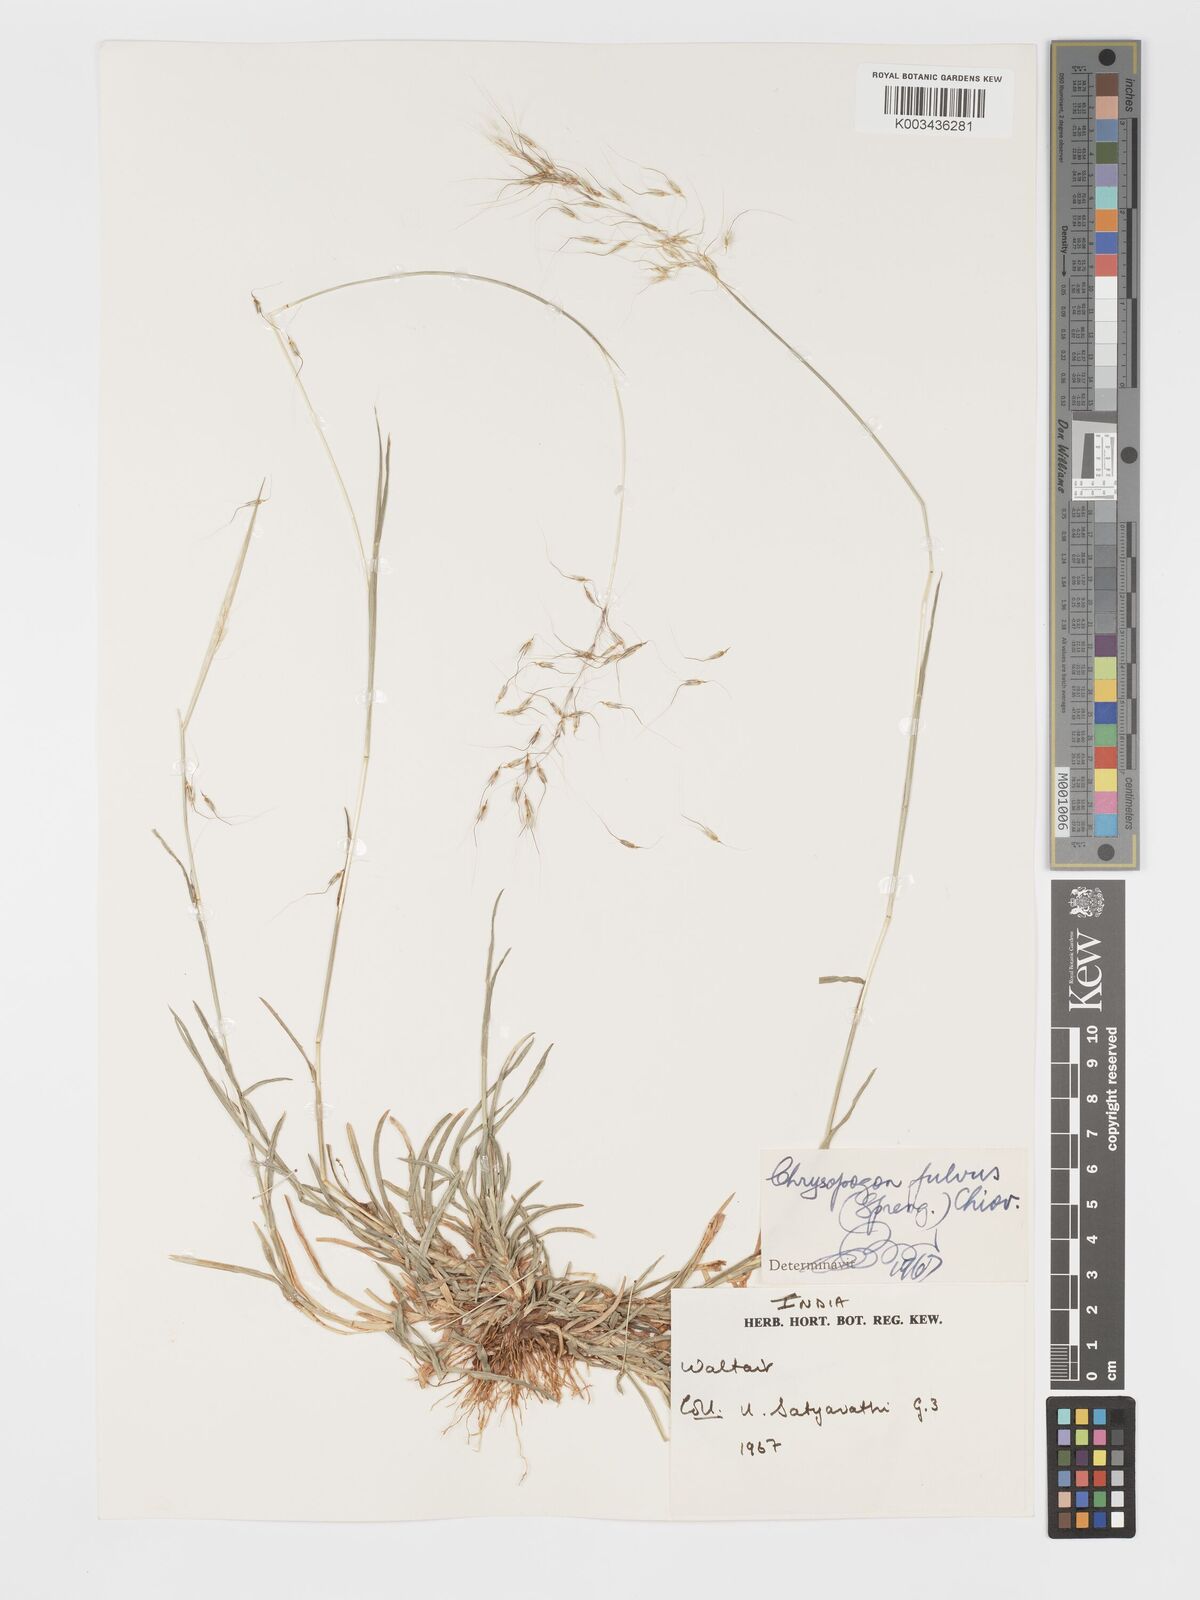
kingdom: Plantae
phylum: Tracheophyta
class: Liliopsida
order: Poales
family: Poaceae
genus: Chrysopogon
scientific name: Chrysopogon fulvus
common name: Red false beardgrass
